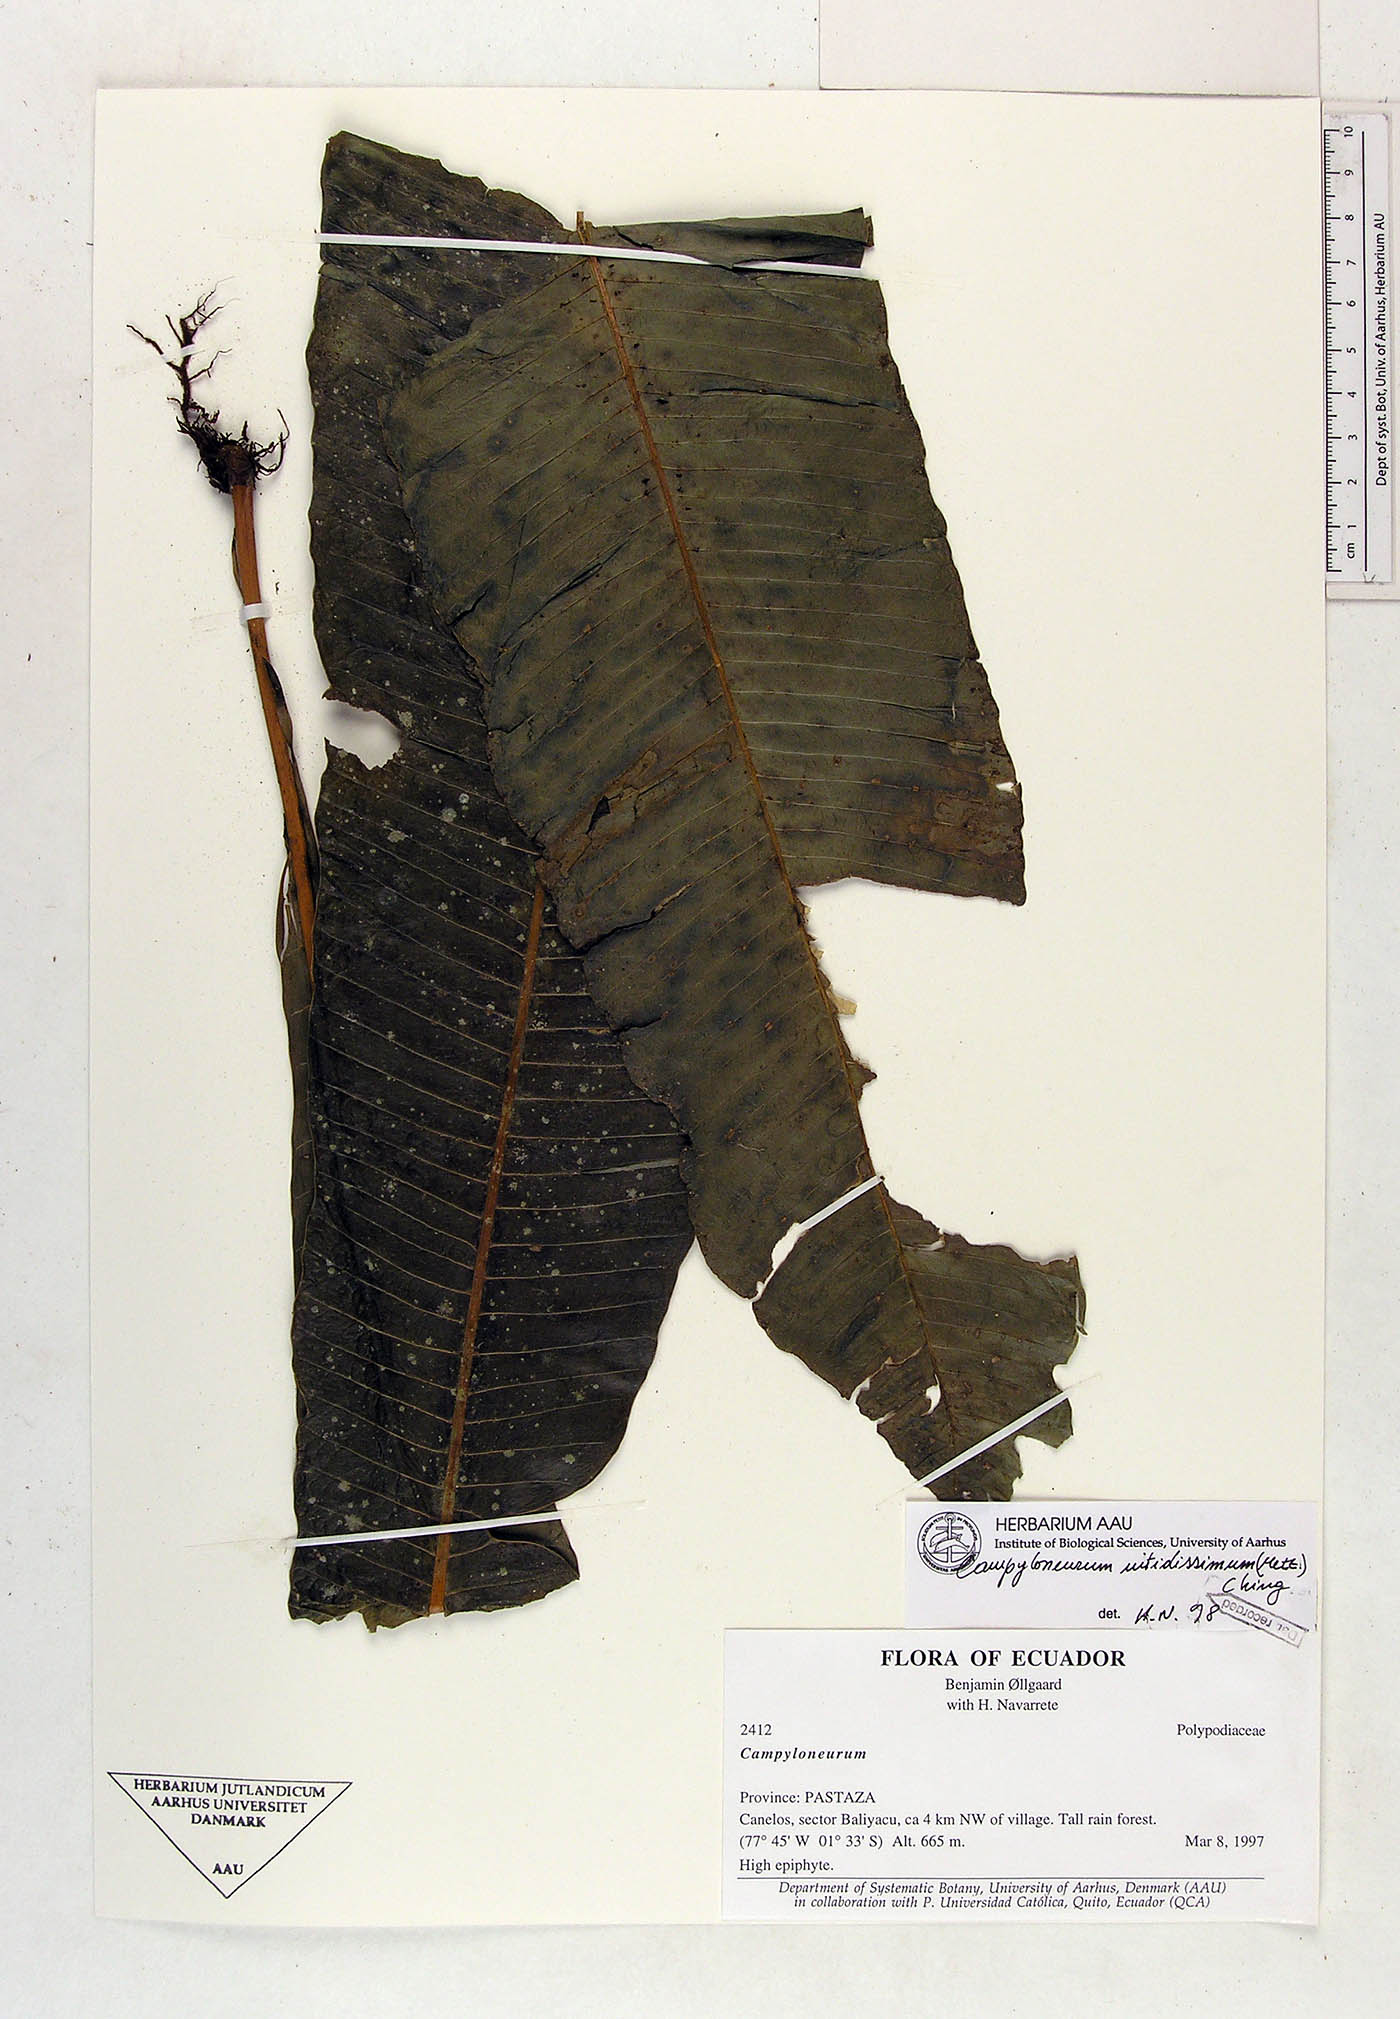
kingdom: Plantae
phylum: Tracheophyta
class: Polypodiopsida
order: Polypodiales
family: Polypodiaceae
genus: Campyloneurum
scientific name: Campyloneurum nitidissimum
